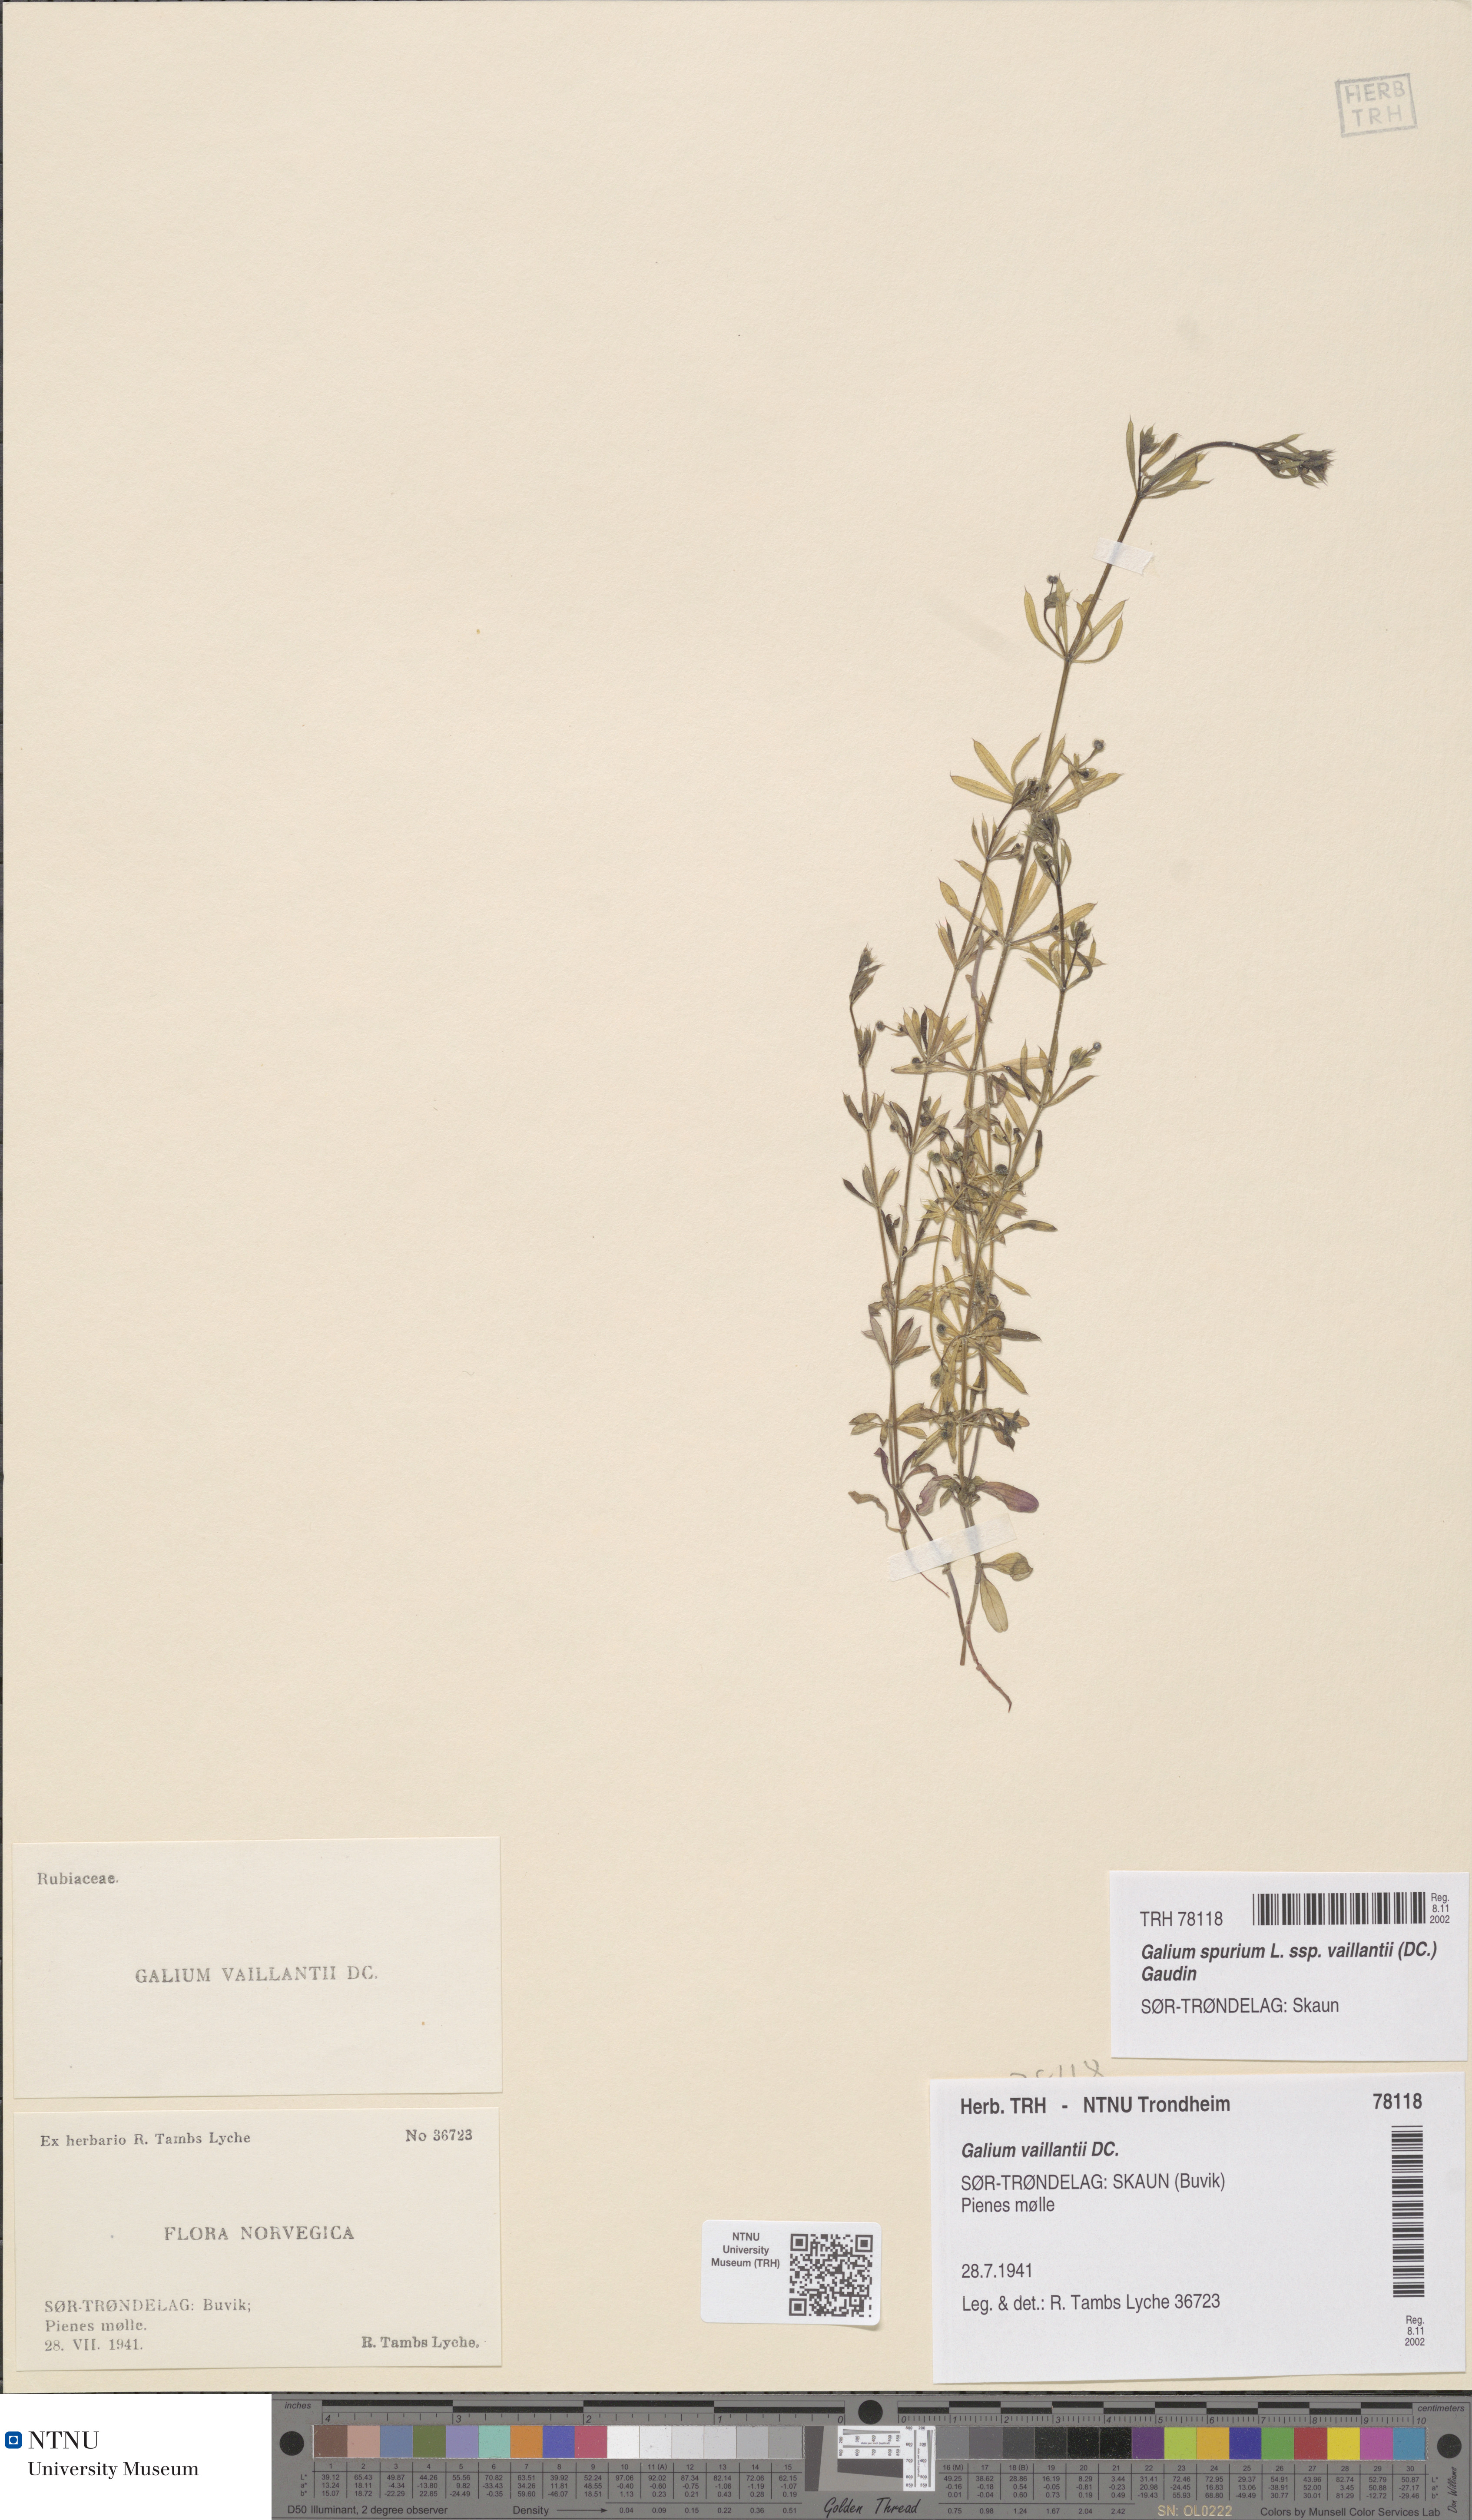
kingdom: Plantae
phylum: Tracheophyta
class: Magnoliopsida
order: Gentianales
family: Rubiaceae
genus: Galium
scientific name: Galium spurium
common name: False cleavers
